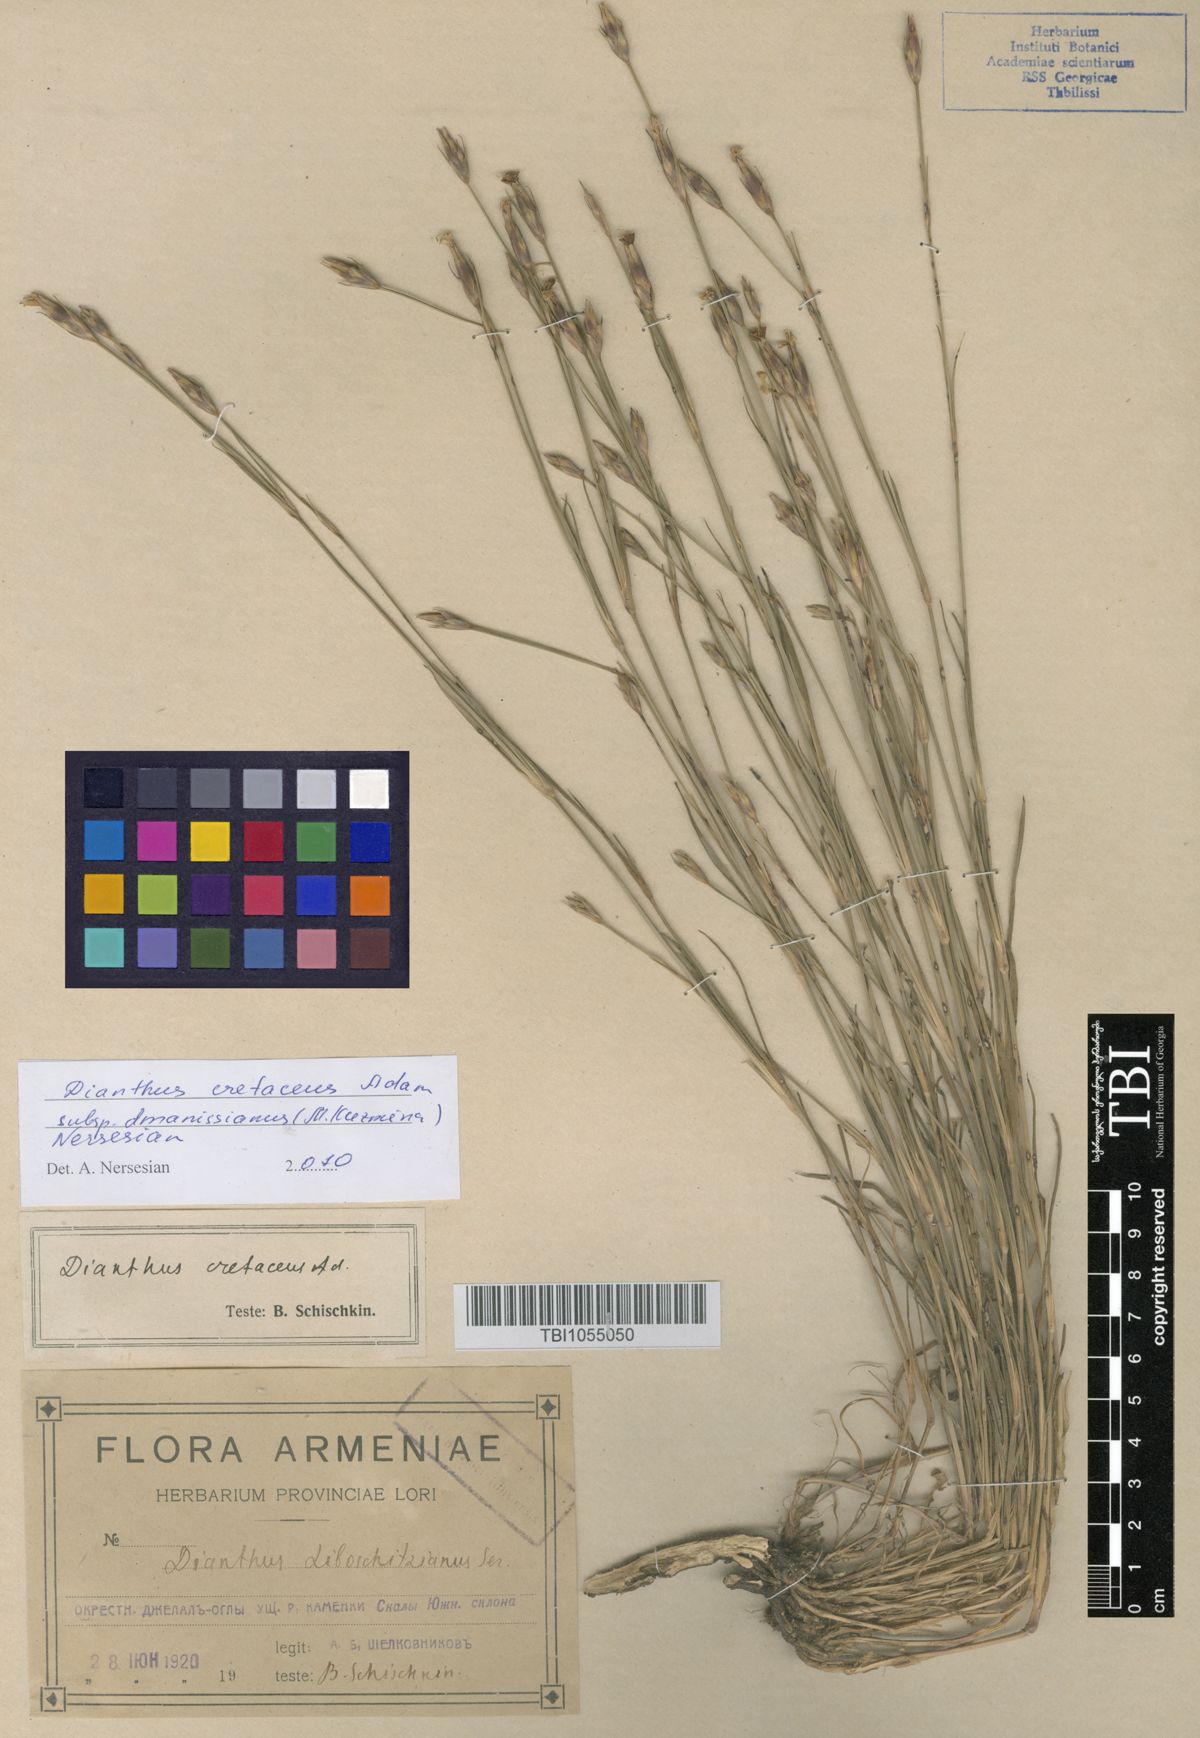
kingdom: Plantae
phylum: Tracheophyta
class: Magnoliopsida
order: Caryophyllales
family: Caryophyllaceae
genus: Dianthus
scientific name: Dianthus cretaceus
